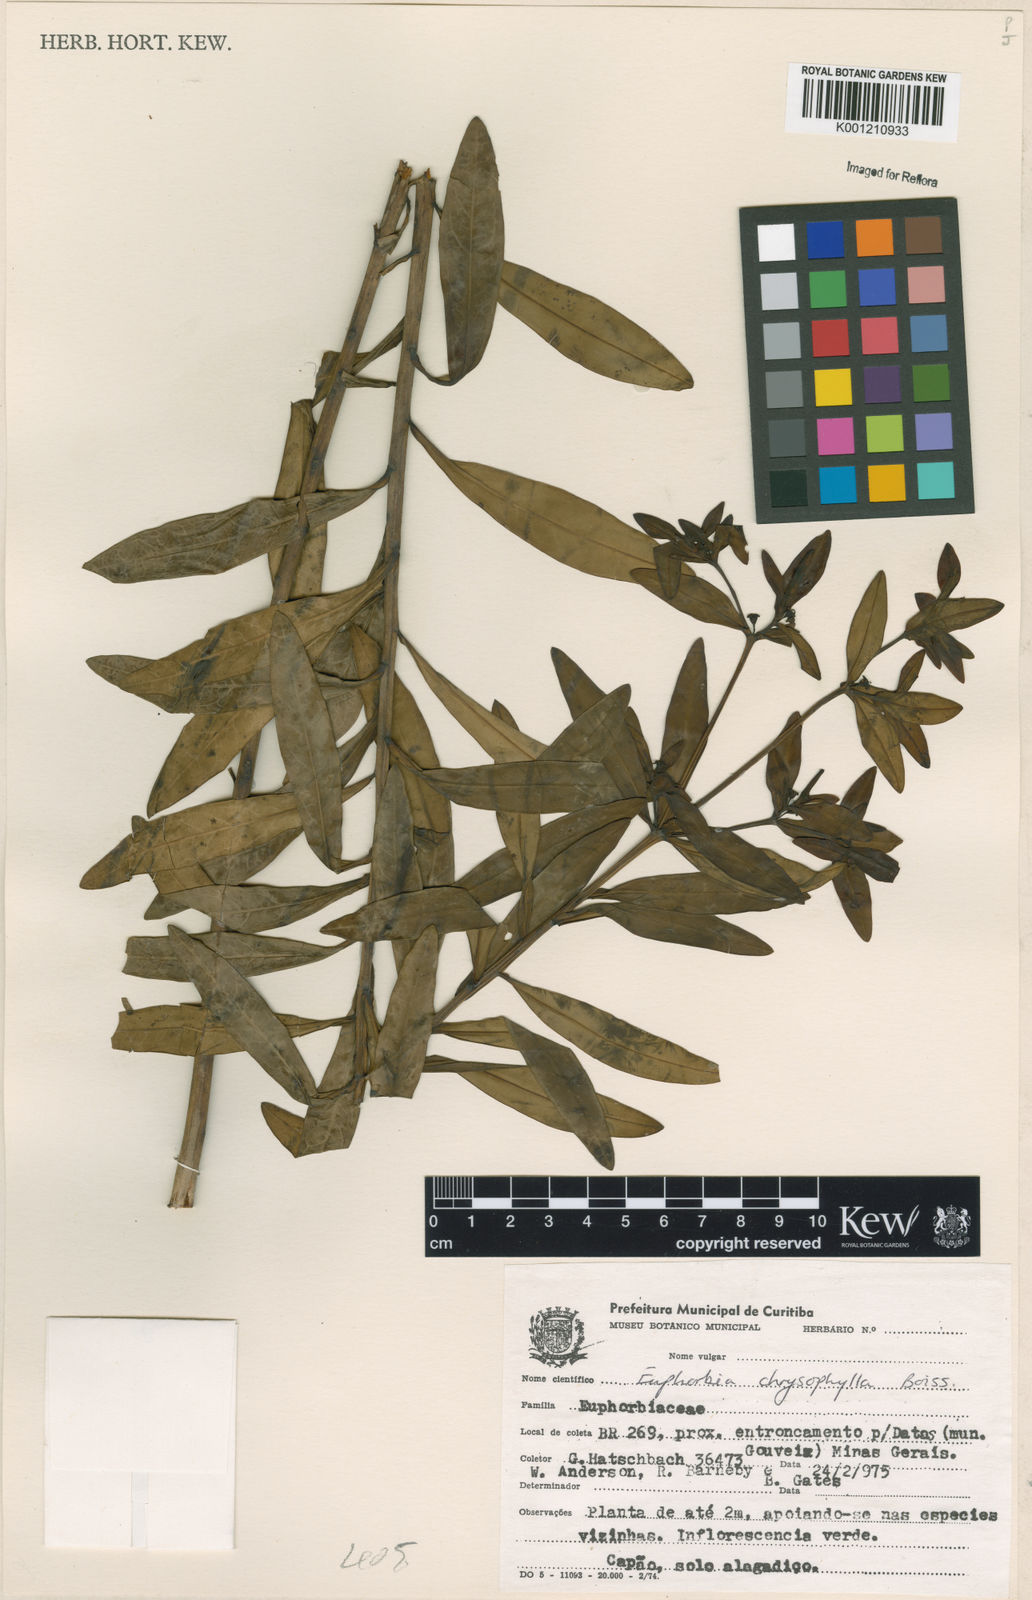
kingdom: Plantae
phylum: Tracheophyta
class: Magnoliopsida
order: Malpighiales
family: Euphorbiaceae
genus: Euphorbia
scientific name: Euphorbia chrysophylla
